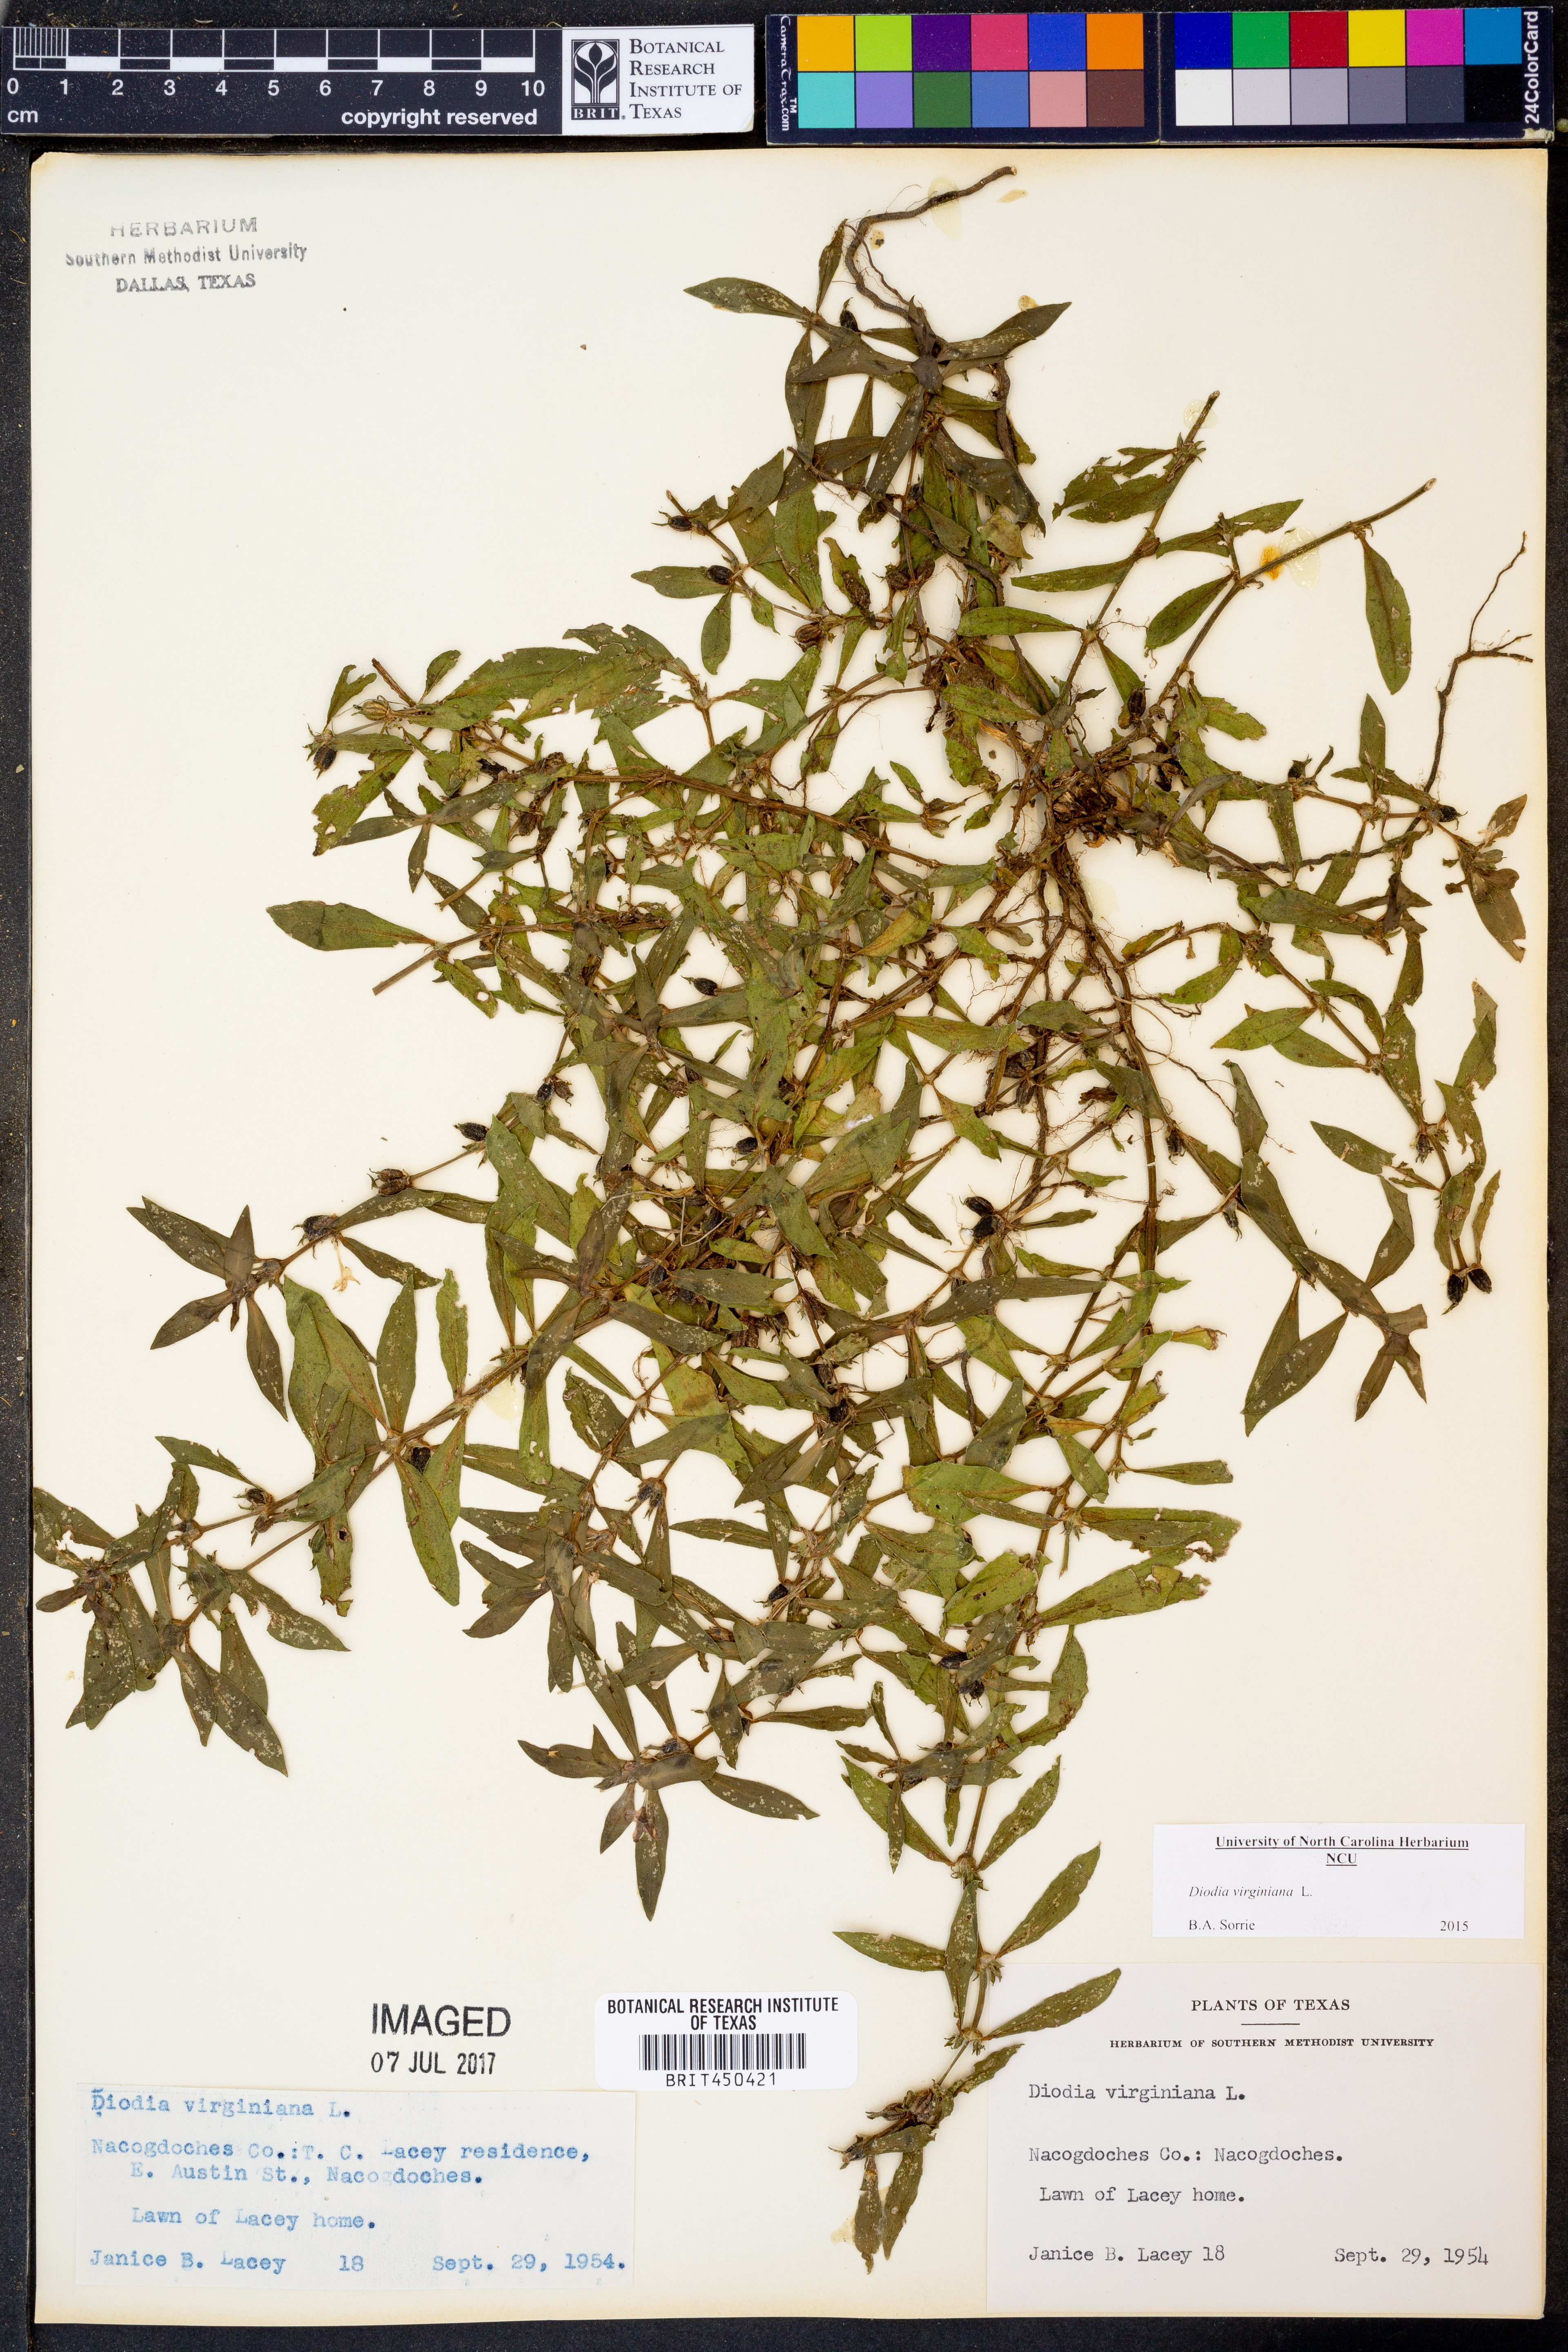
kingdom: Plantae
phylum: Tracheophyta
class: Magnoliopsida
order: Gentianales
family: Rubiaceae
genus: Diodia
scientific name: Diodia virginiana
